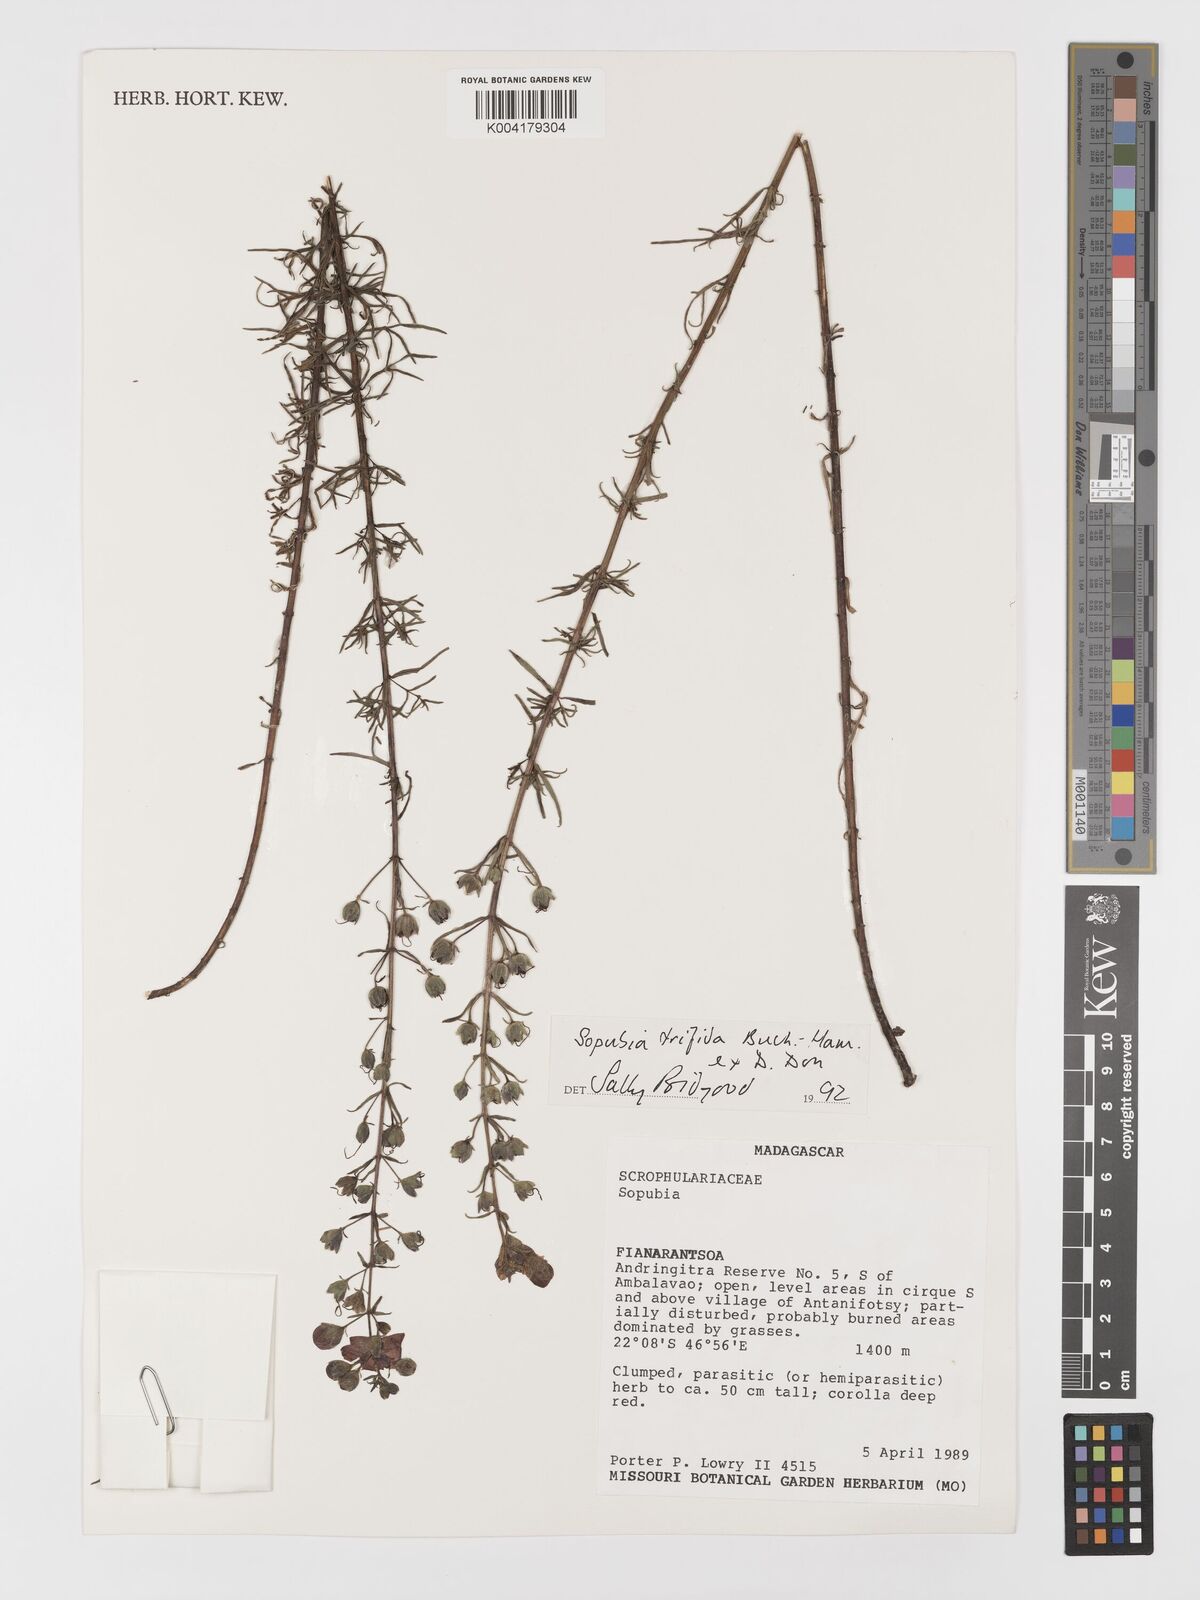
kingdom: Plantae
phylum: Tracheophyta
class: Magnoliopsida
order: Lamiales
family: Orobanchaceae
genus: Sopubia
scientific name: Sopubia trifida
